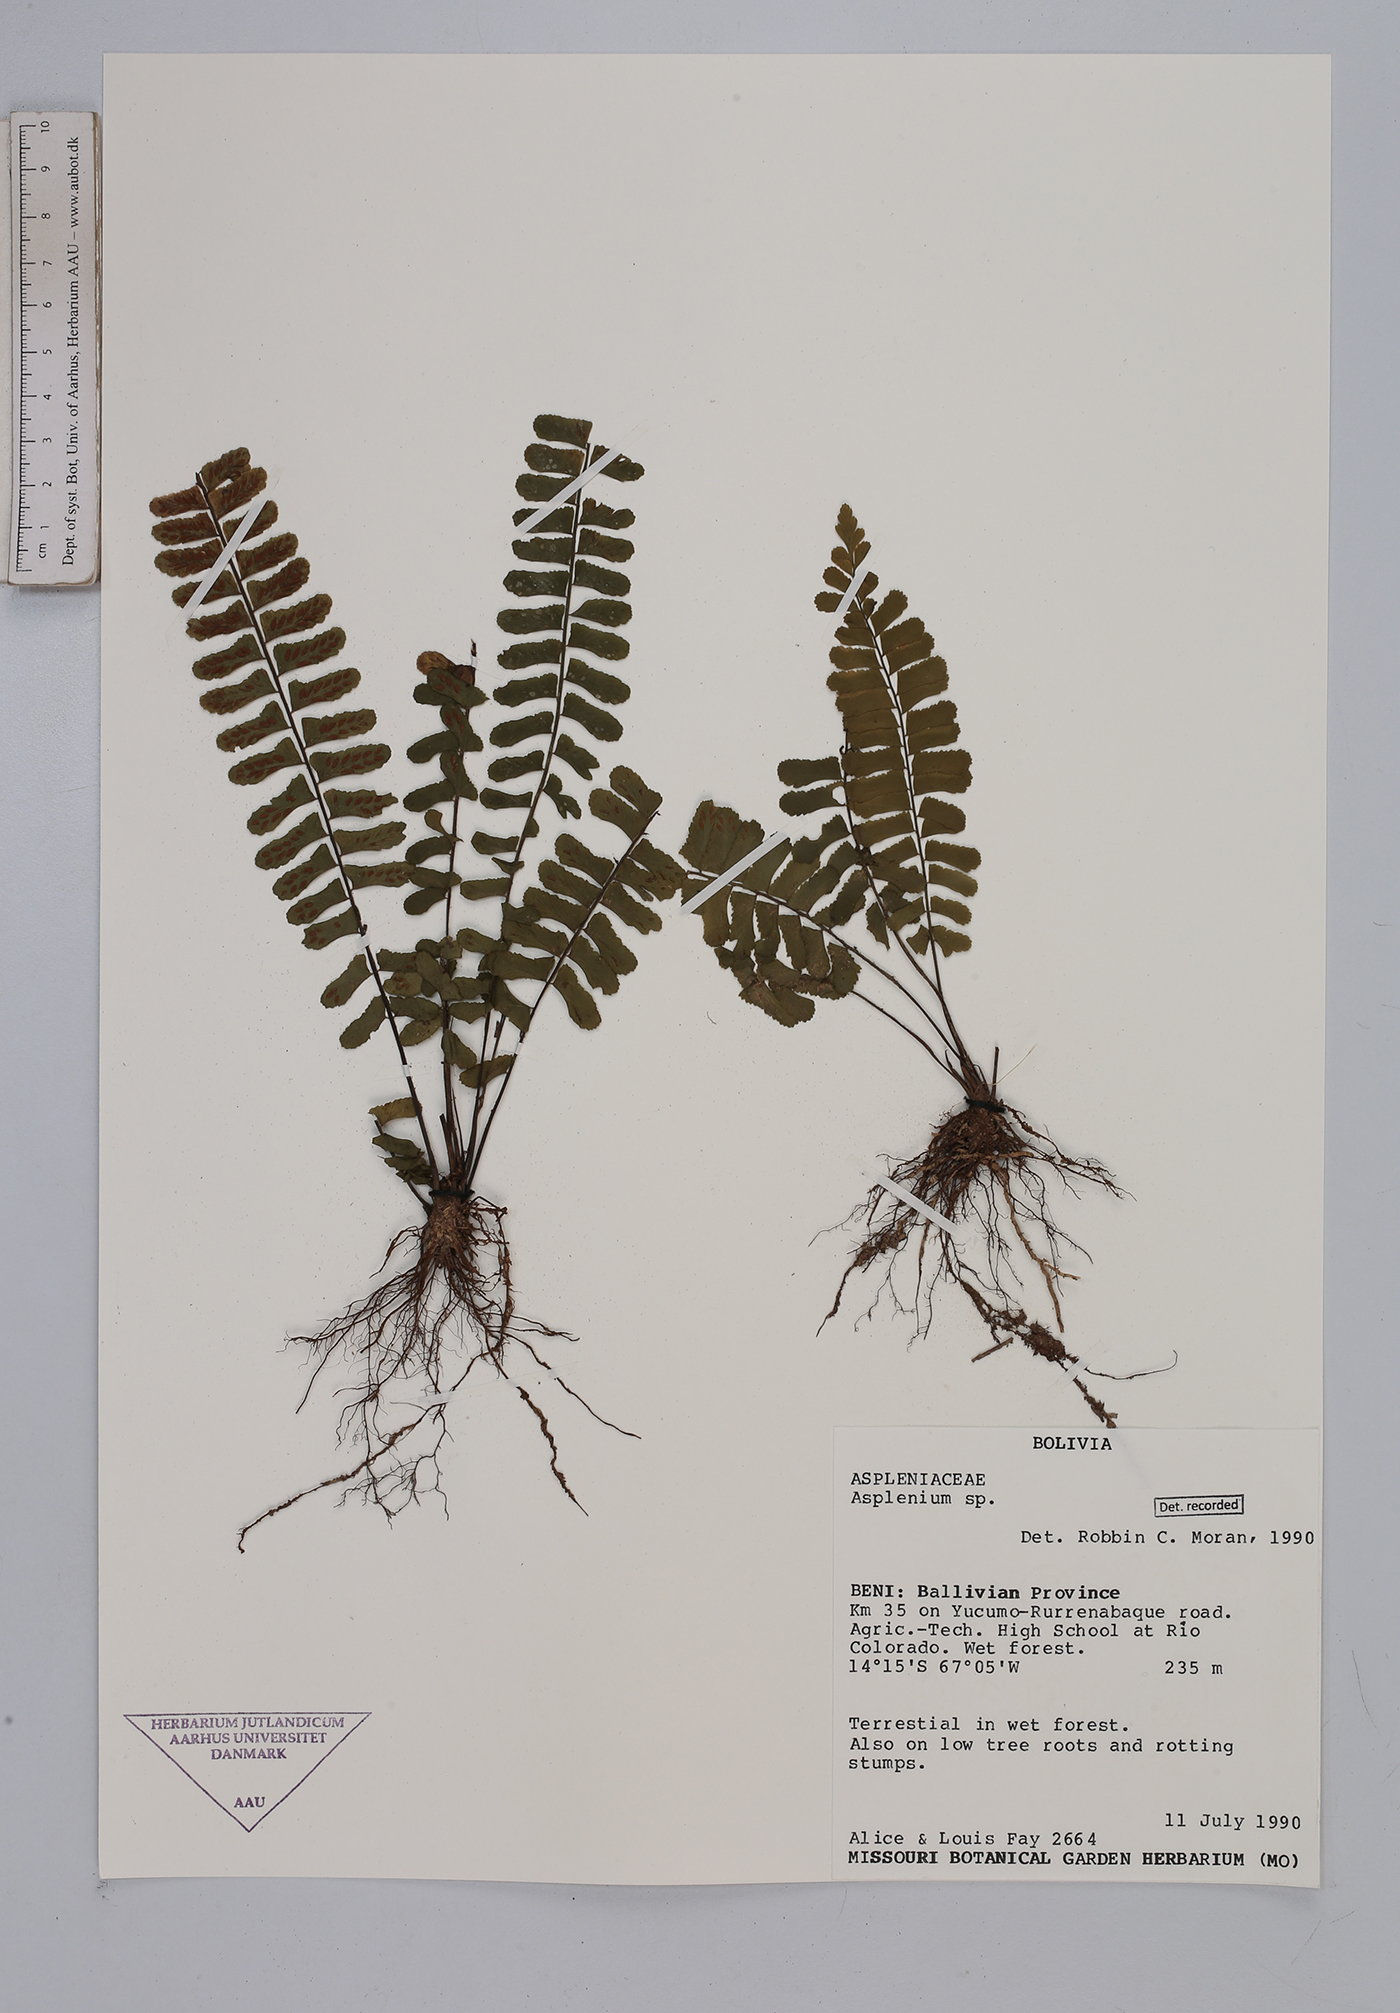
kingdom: Plantae
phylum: Tracheophyta
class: Polypodiopsida
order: Polypodiales
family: Aspleniaceae
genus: Asplenium
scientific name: Asplenium
